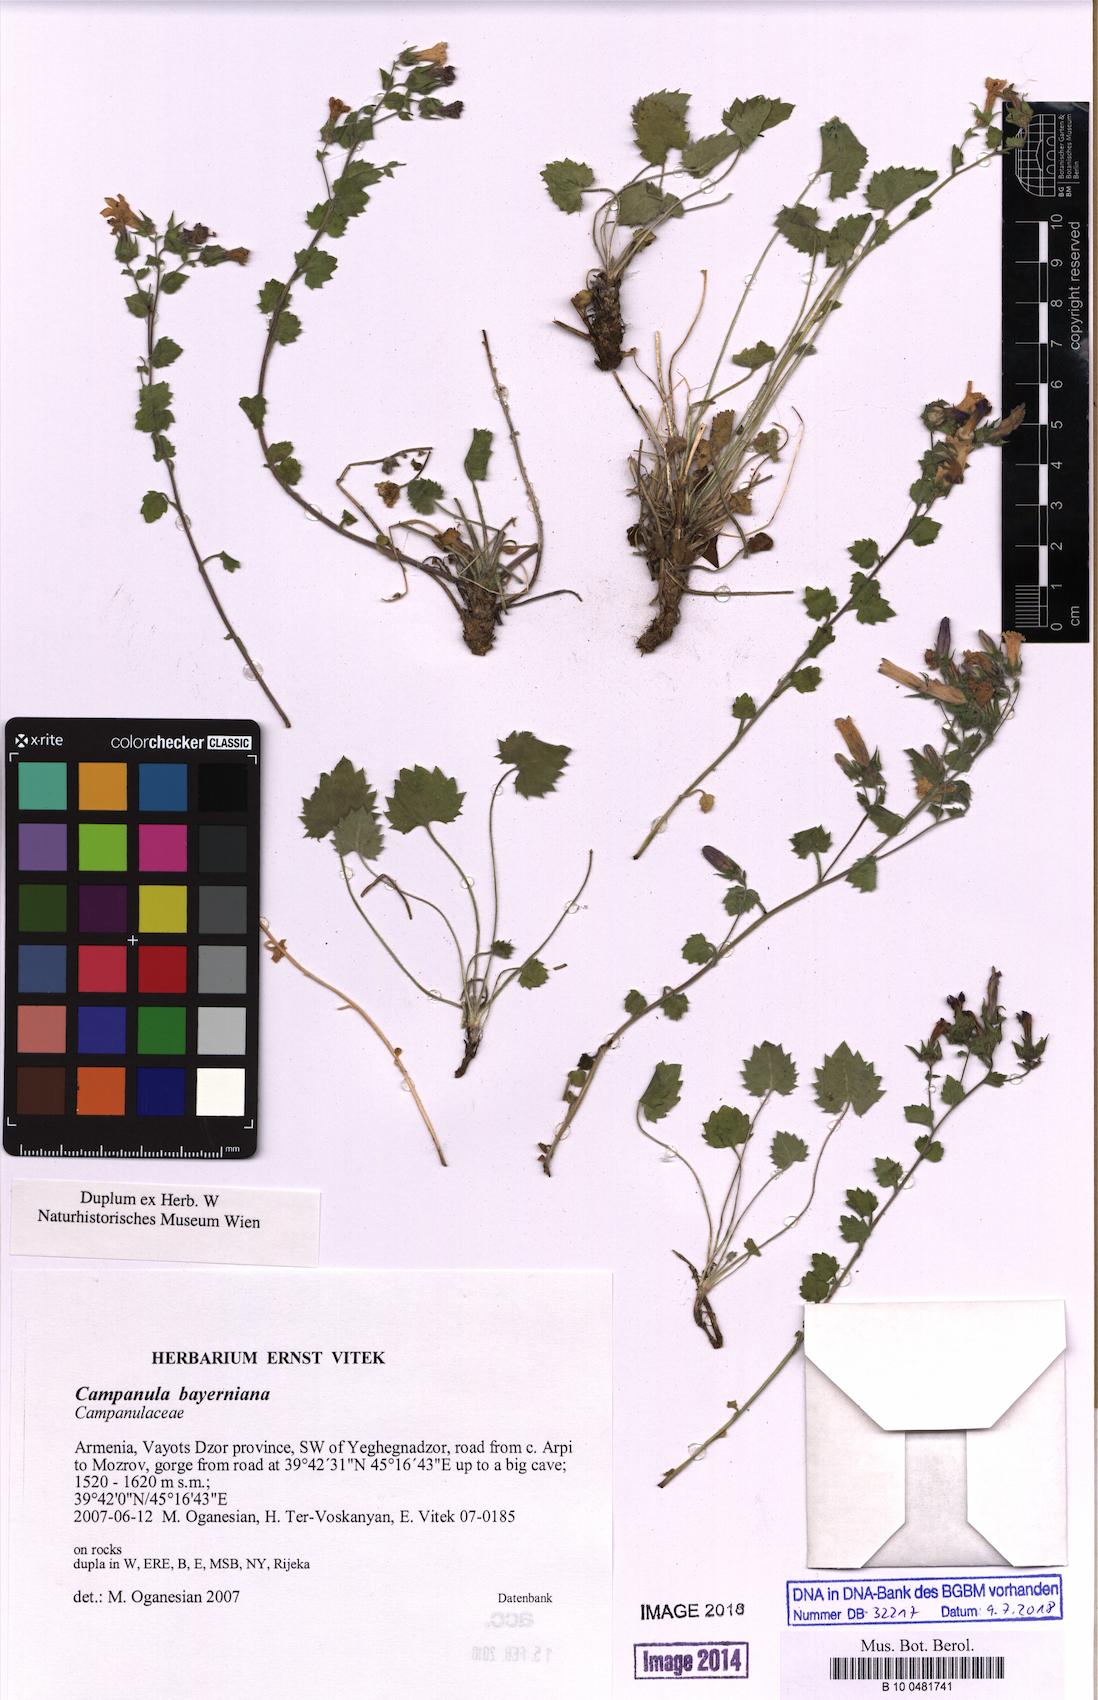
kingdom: Plantae
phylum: Tracheophyta
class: Magnoliopsida
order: Asterales
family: Campanulaceae
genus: Campanula
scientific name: Campanula bayerniana
